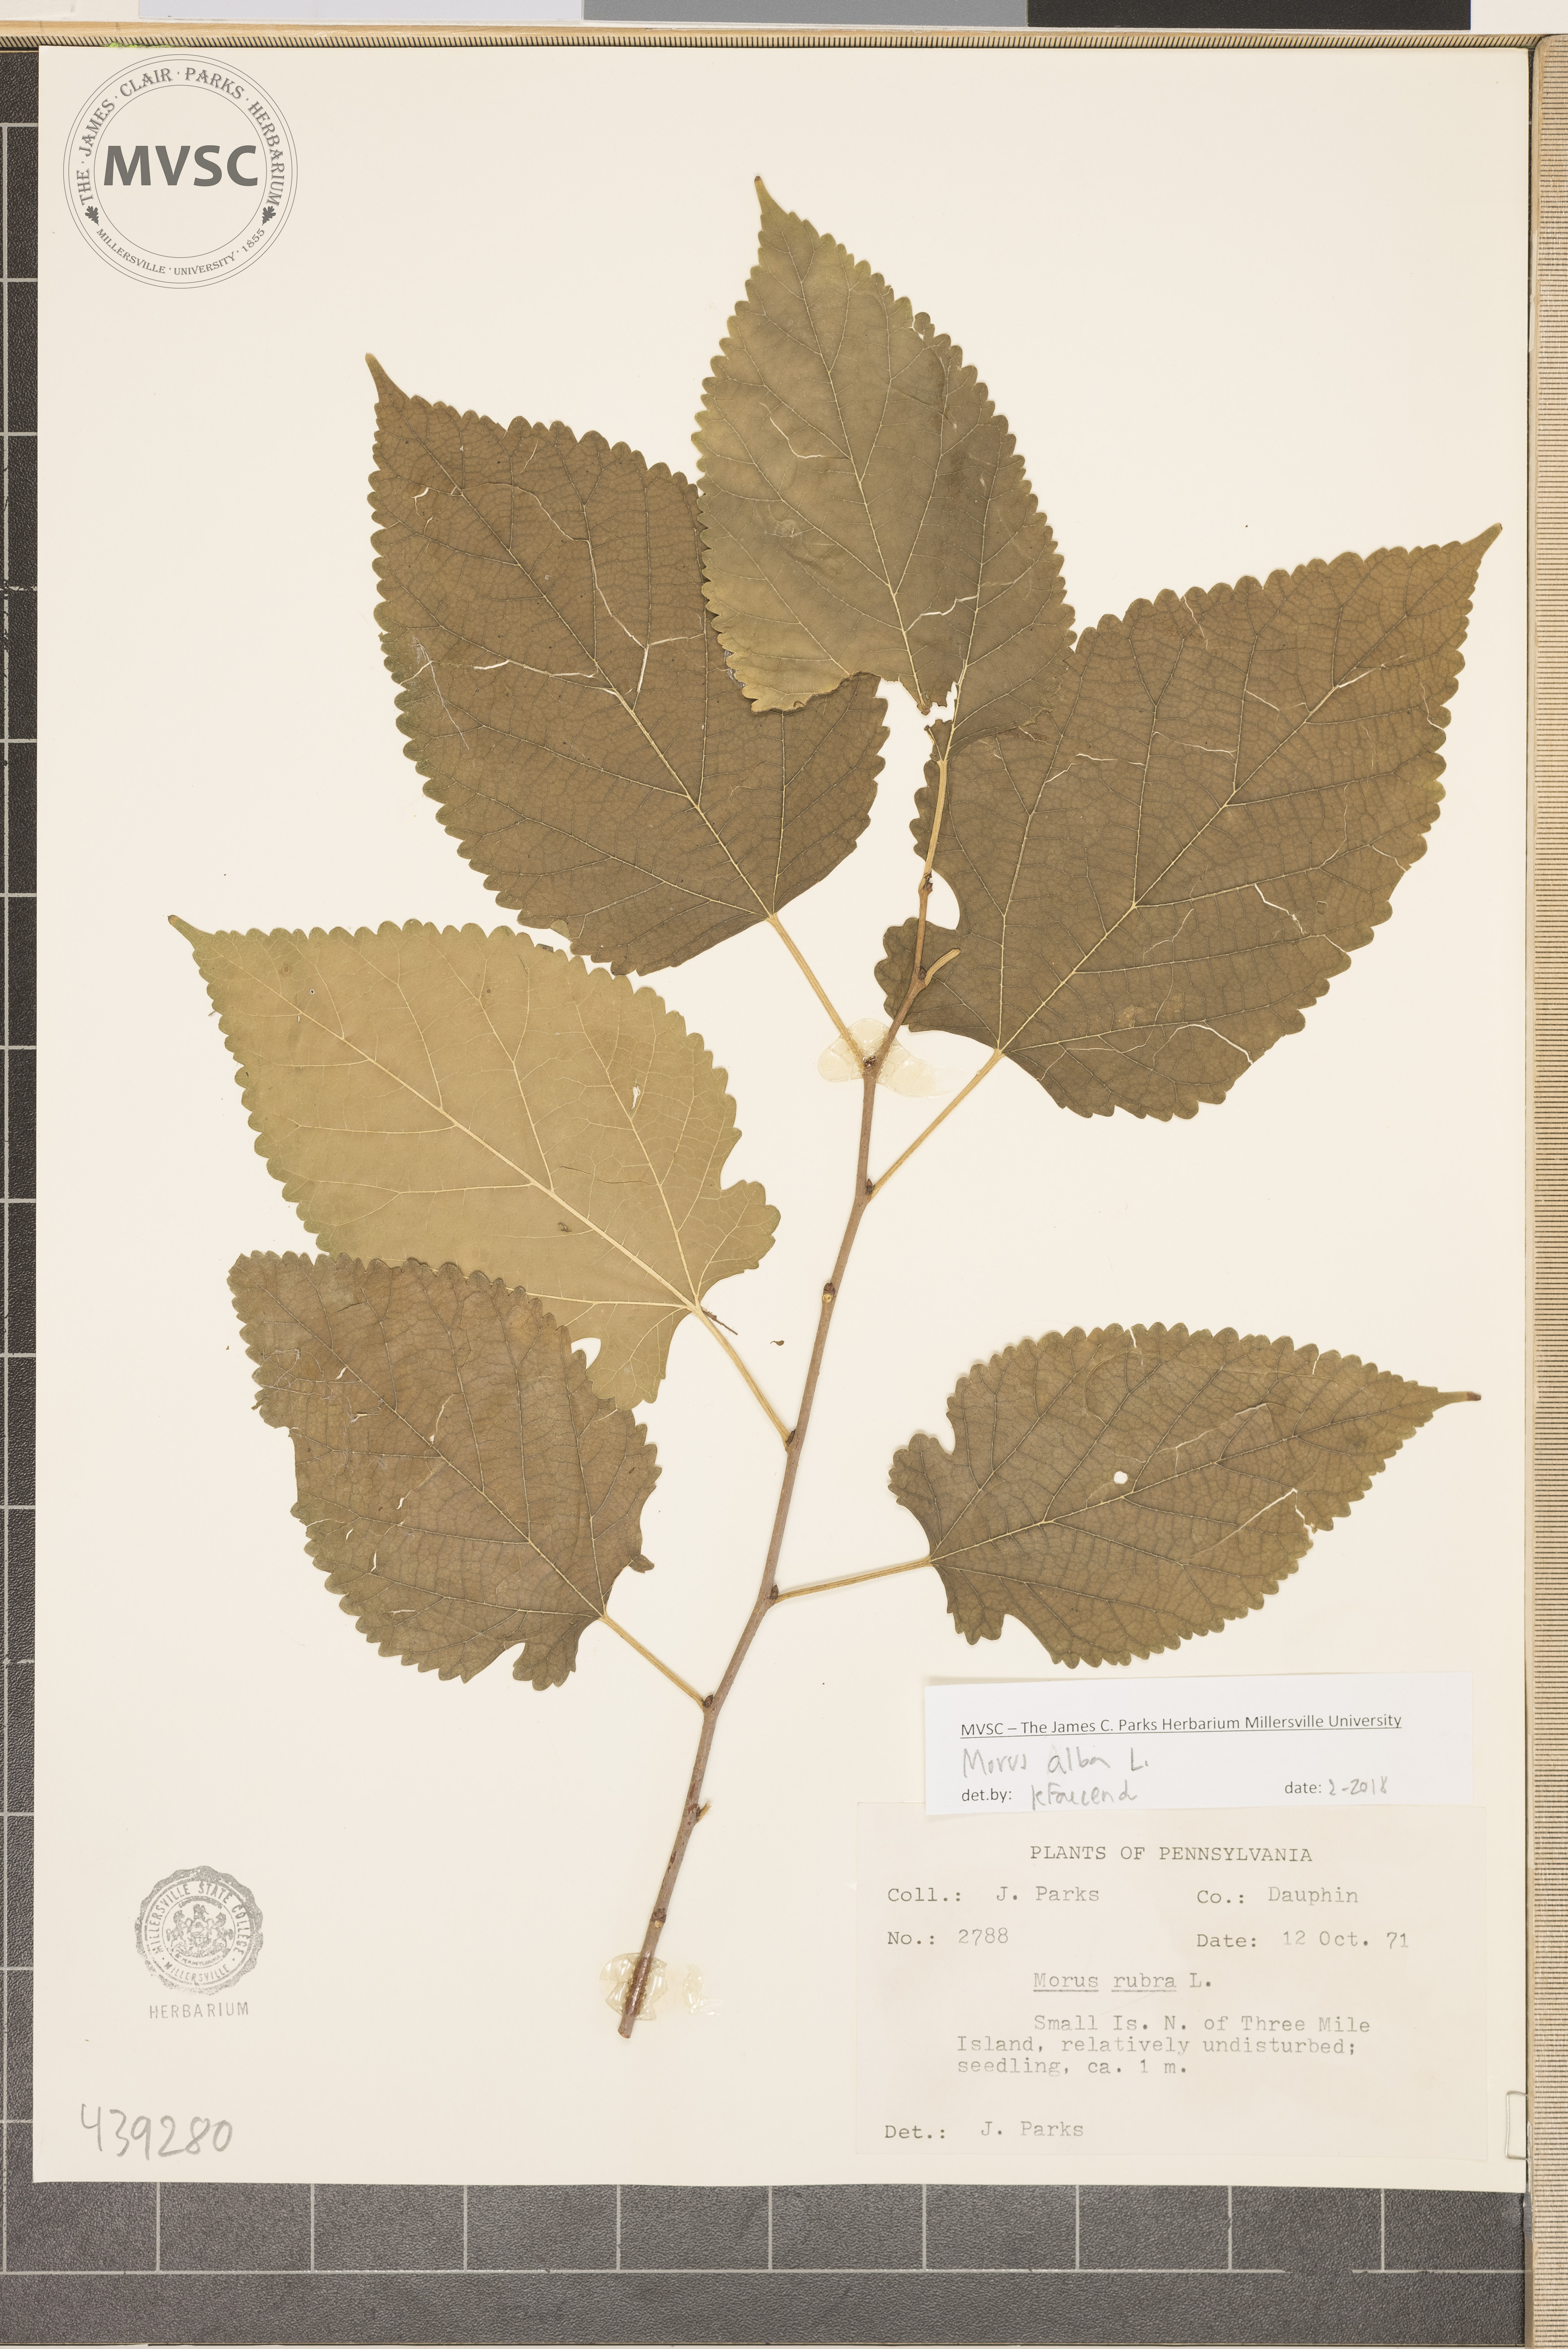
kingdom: Plantae
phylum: Tracheophyta
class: Magnoliopsida
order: Rosales
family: Moraceae
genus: Morus
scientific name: Morus alba
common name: White mulberry
